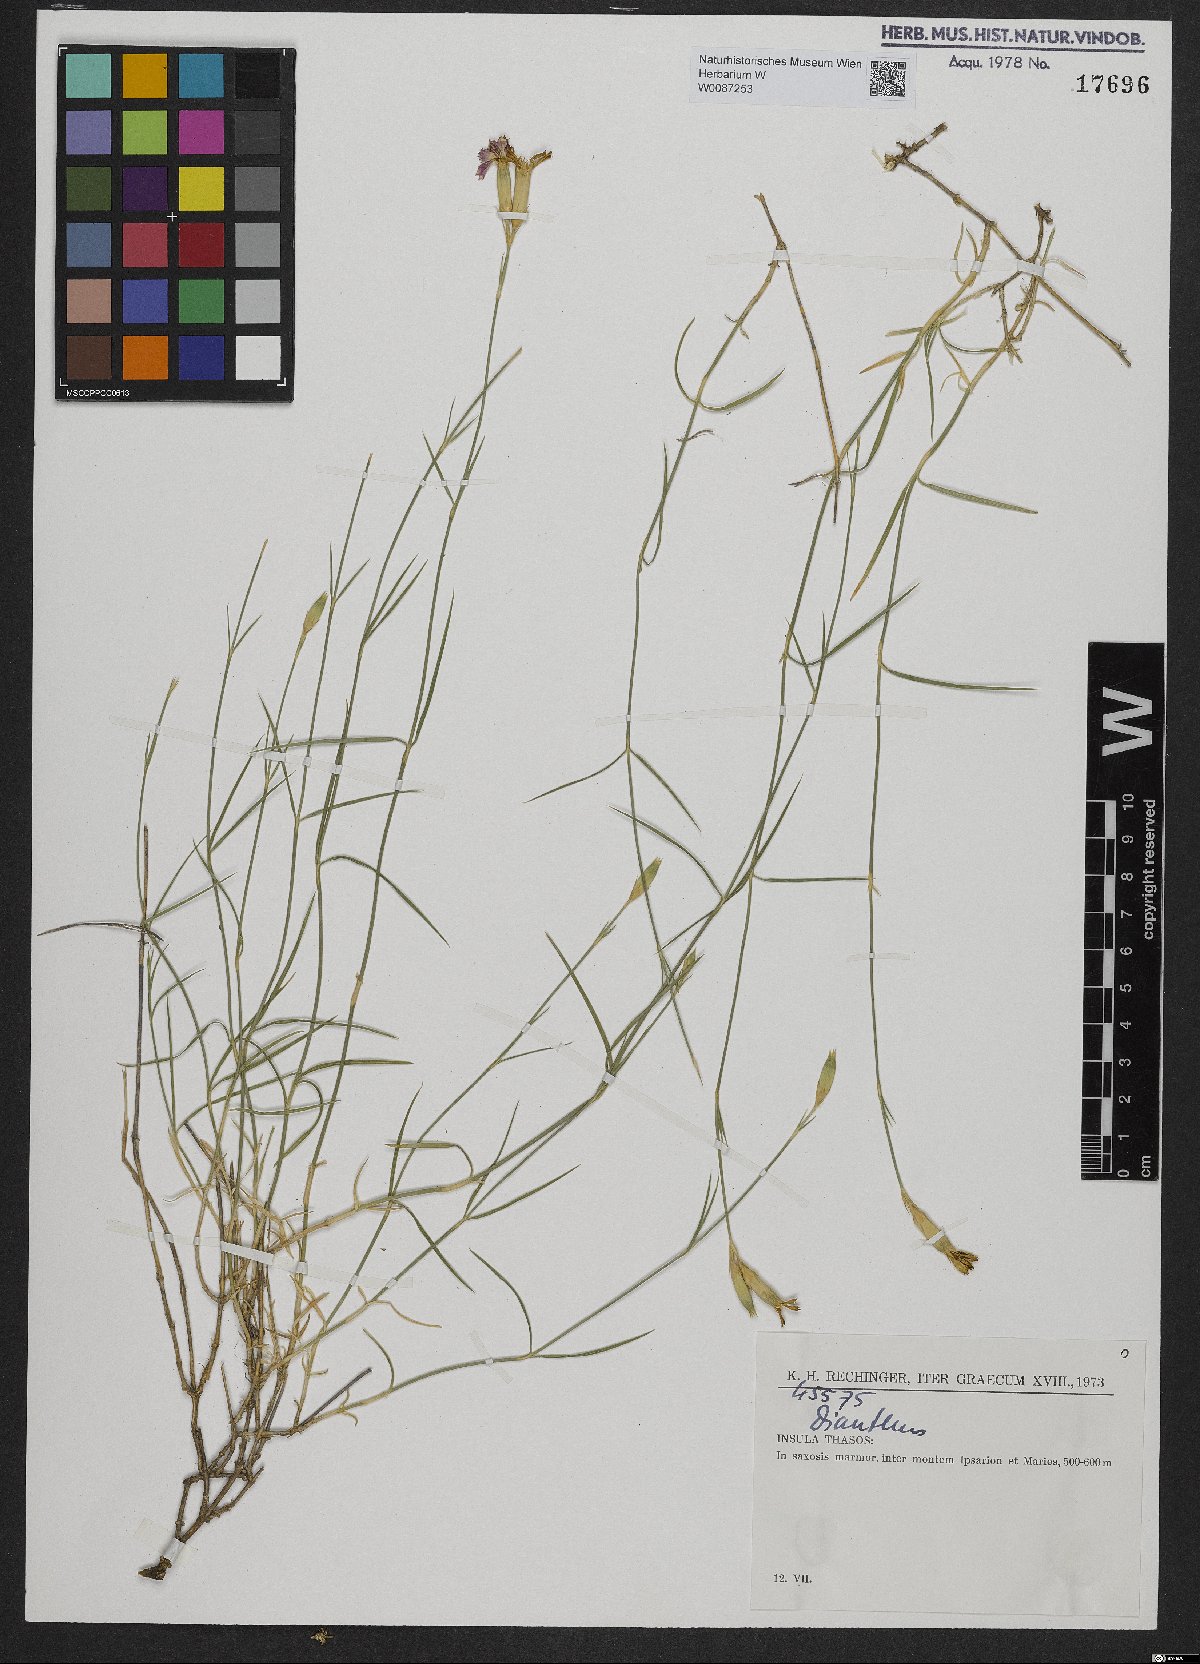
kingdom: Plantae
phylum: Tracheophyta
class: Magnoliopsida
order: Caryophyllales
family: Caryophyllaceae
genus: Dianthus
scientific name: Dianthus
